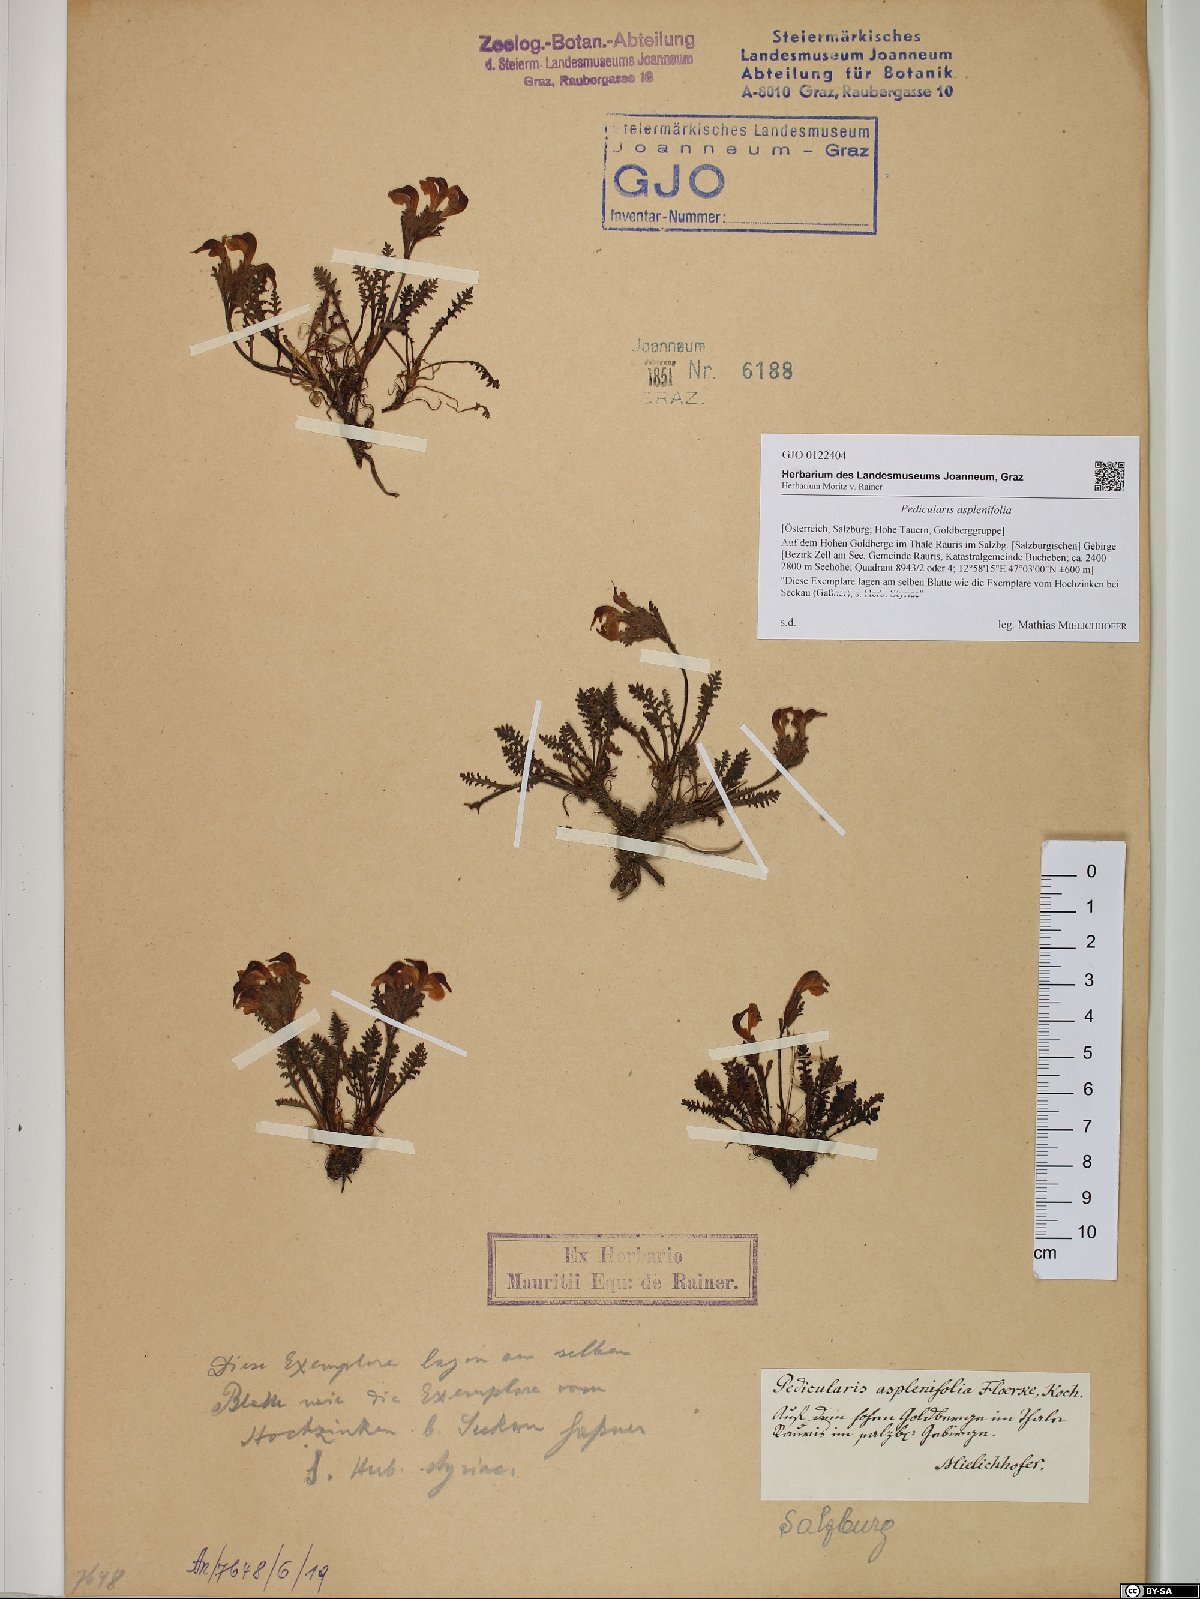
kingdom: Plantae
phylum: Tracheophyta
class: Magnoliopsida
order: Lamiales
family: Orobanchaceae
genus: Pedicularis
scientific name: Pedicularis asplenifolia
